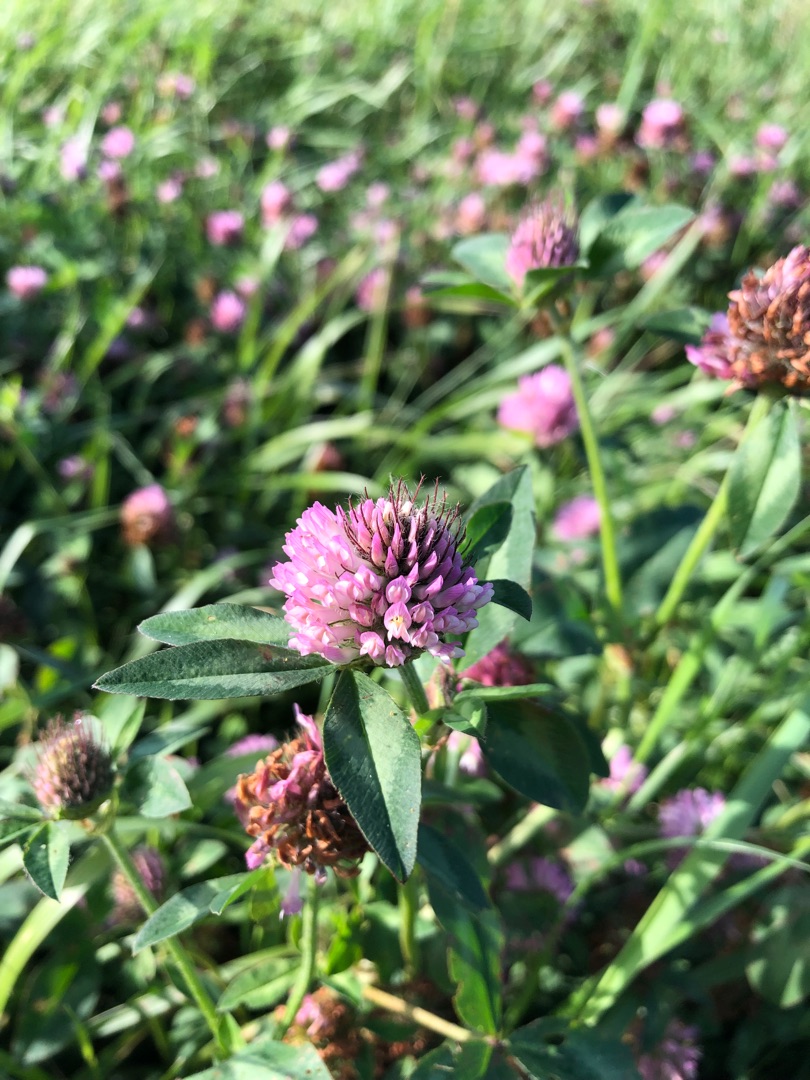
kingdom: Plantae
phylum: Tracheophyta
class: Magnoliopsida
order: Fabales
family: Fabaceae
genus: Trifolium
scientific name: Trifolium pratense
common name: Rød-kløver
